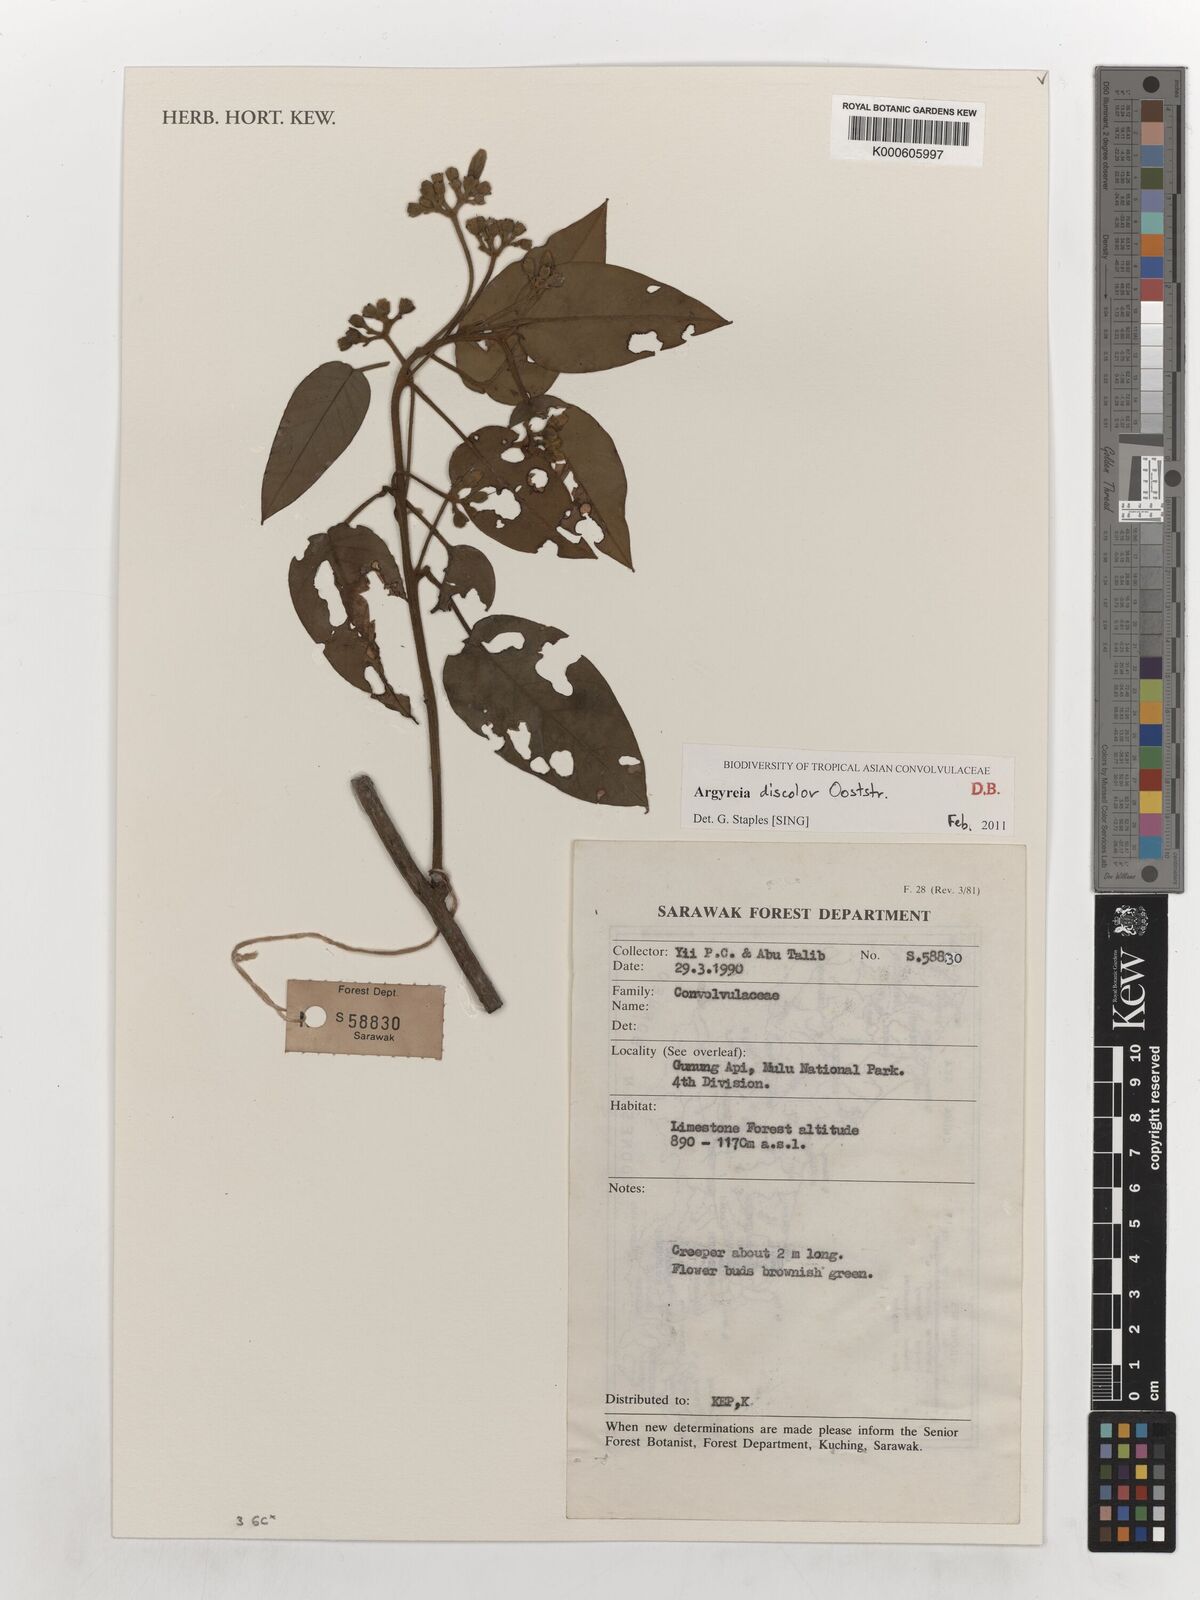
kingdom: Plantae
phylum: Tracheophyta
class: Magnoliopsida
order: Solanales
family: Convolvulaceae
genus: Argyreia
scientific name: Argyreia discolor
